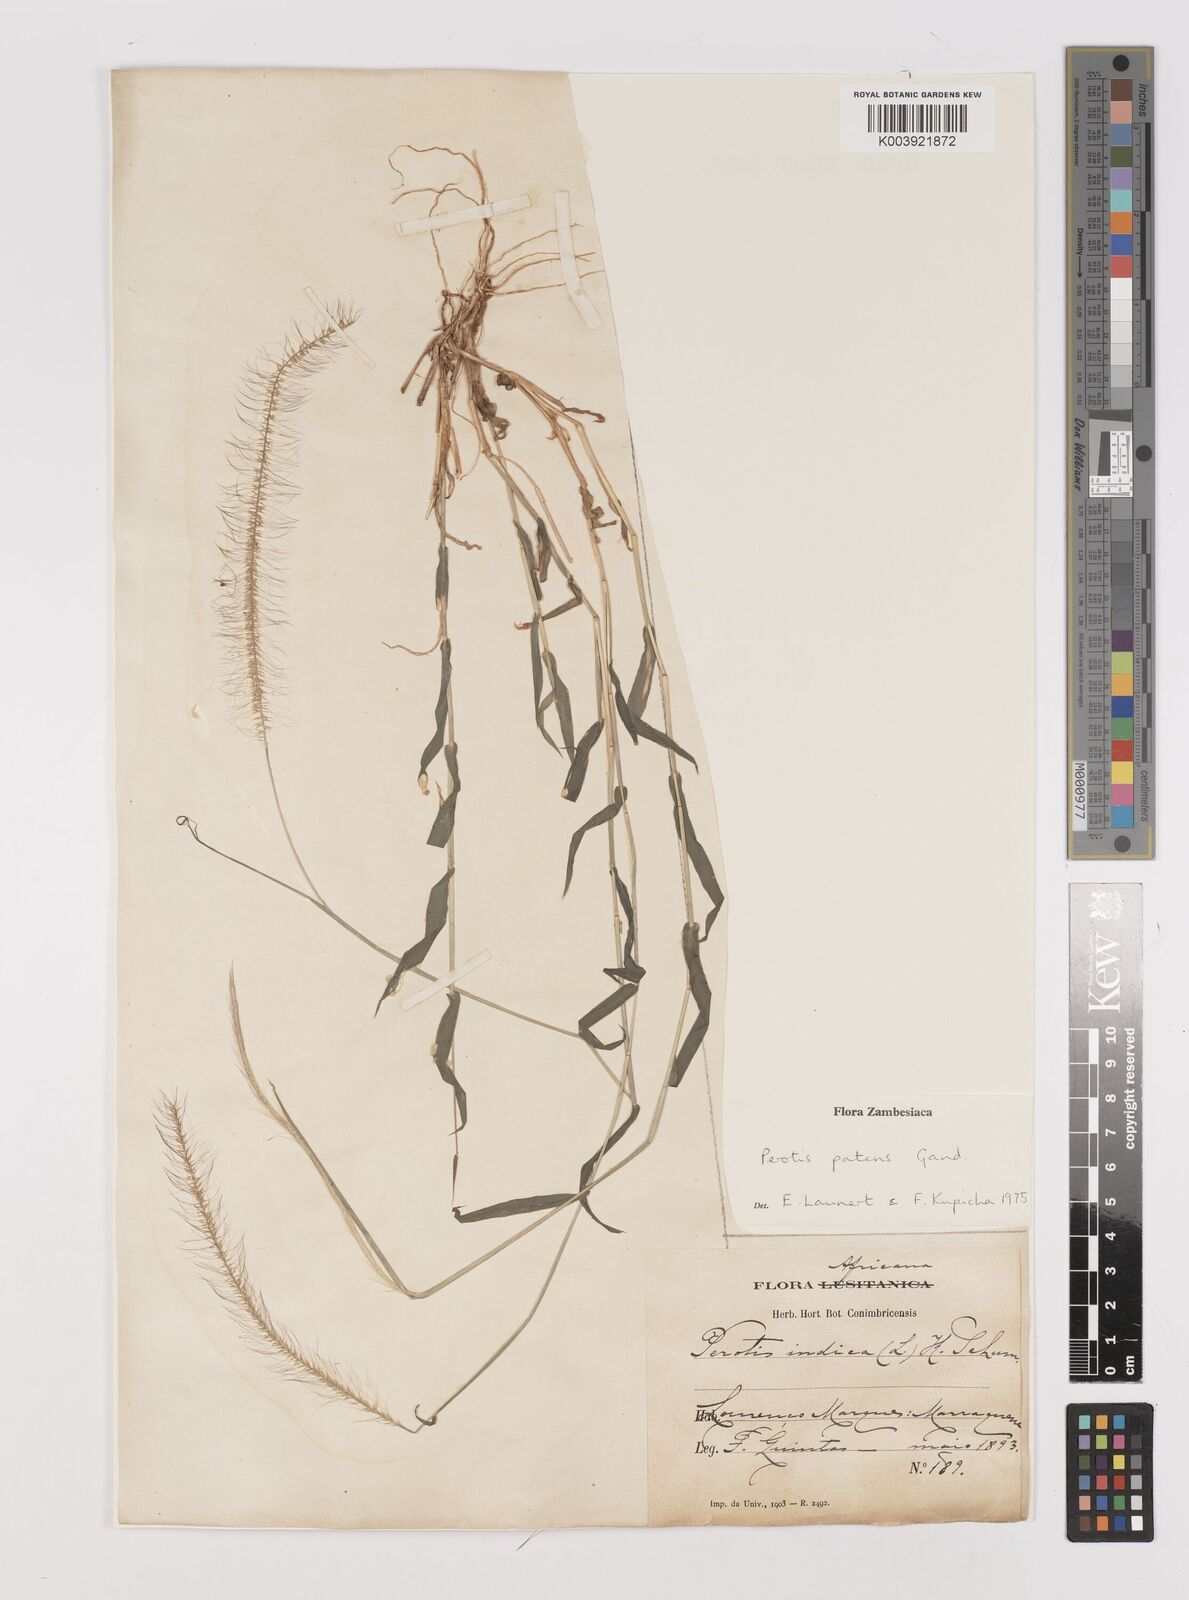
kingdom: Plantae
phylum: Tracheophyta
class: Liliopsida
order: Poales
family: Poaceae
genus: Perotis
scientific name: Perotis patens
